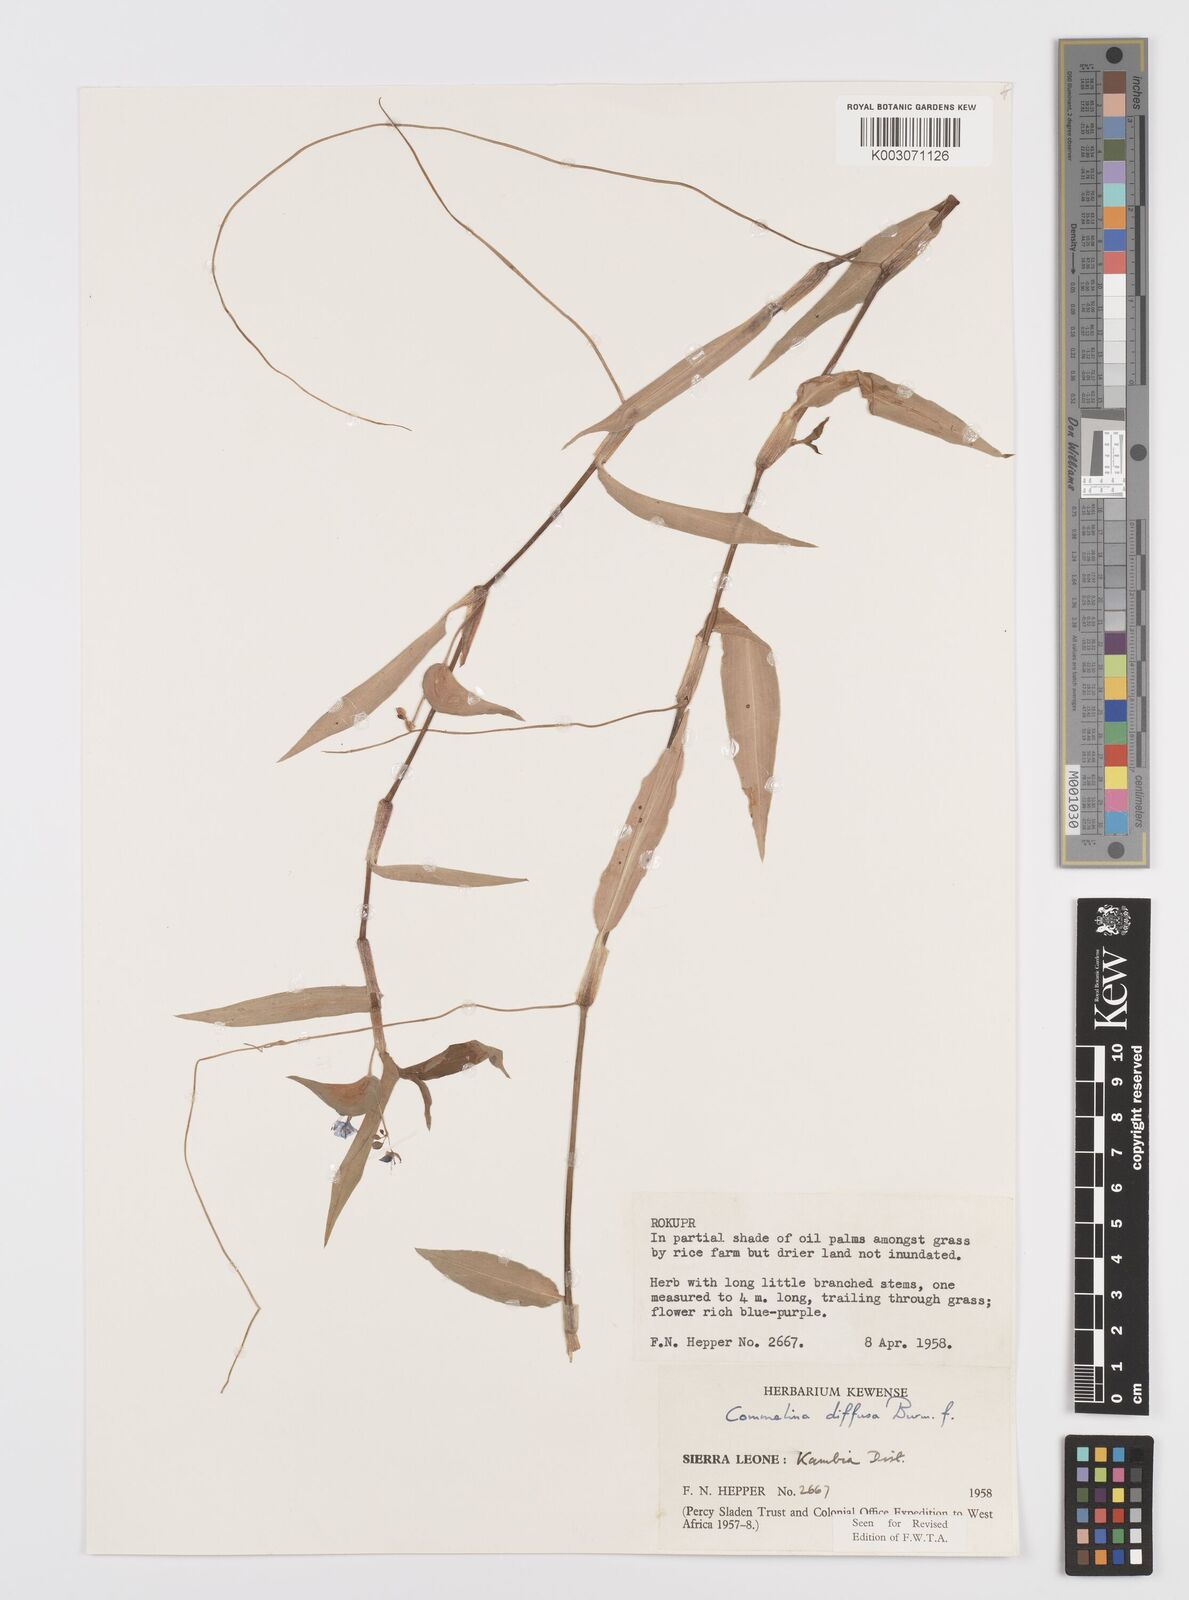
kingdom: Plantae
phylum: Tracheophyta
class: Liliopsida
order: Commelinales
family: Commelinaceae
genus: Commelina
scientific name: Commelina diffusa
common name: Climbing dayflower
